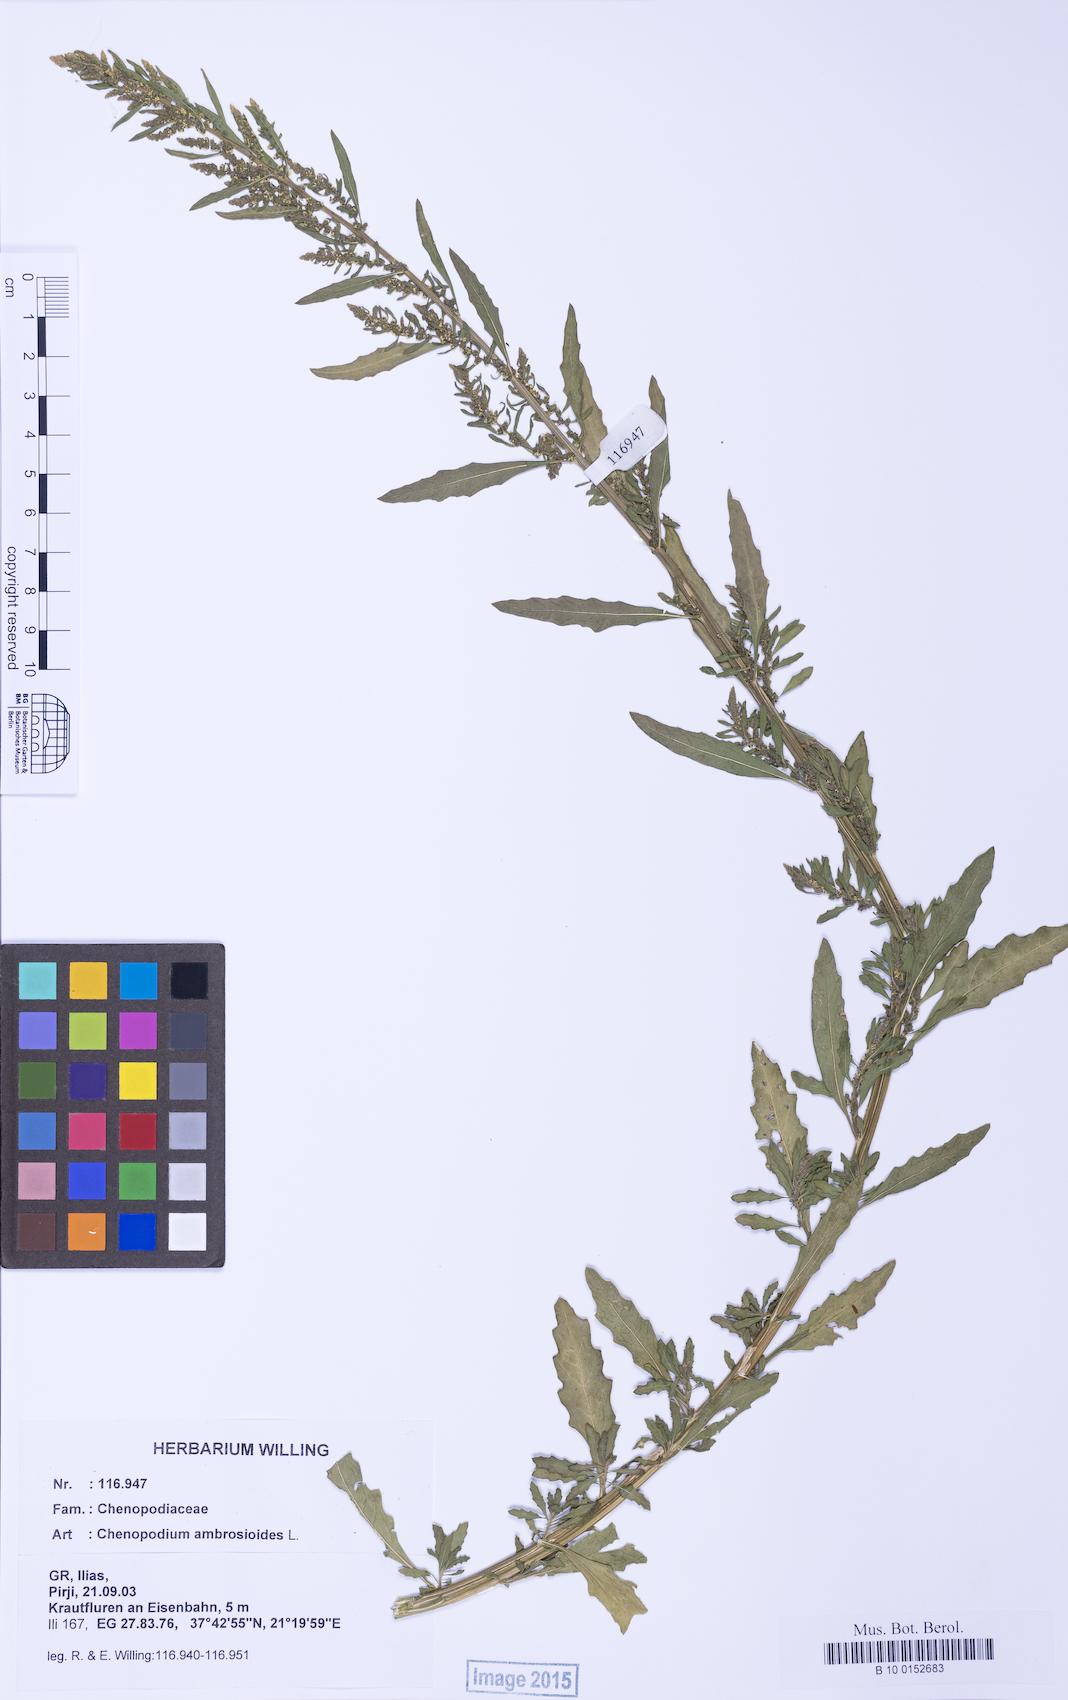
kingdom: Plantae
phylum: Tracheophyta
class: Magnoliopsida
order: Caryophyllales
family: Amaranthaceae
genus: Dysphania
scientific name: Dysphania ambrosioides
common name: Wormseed
